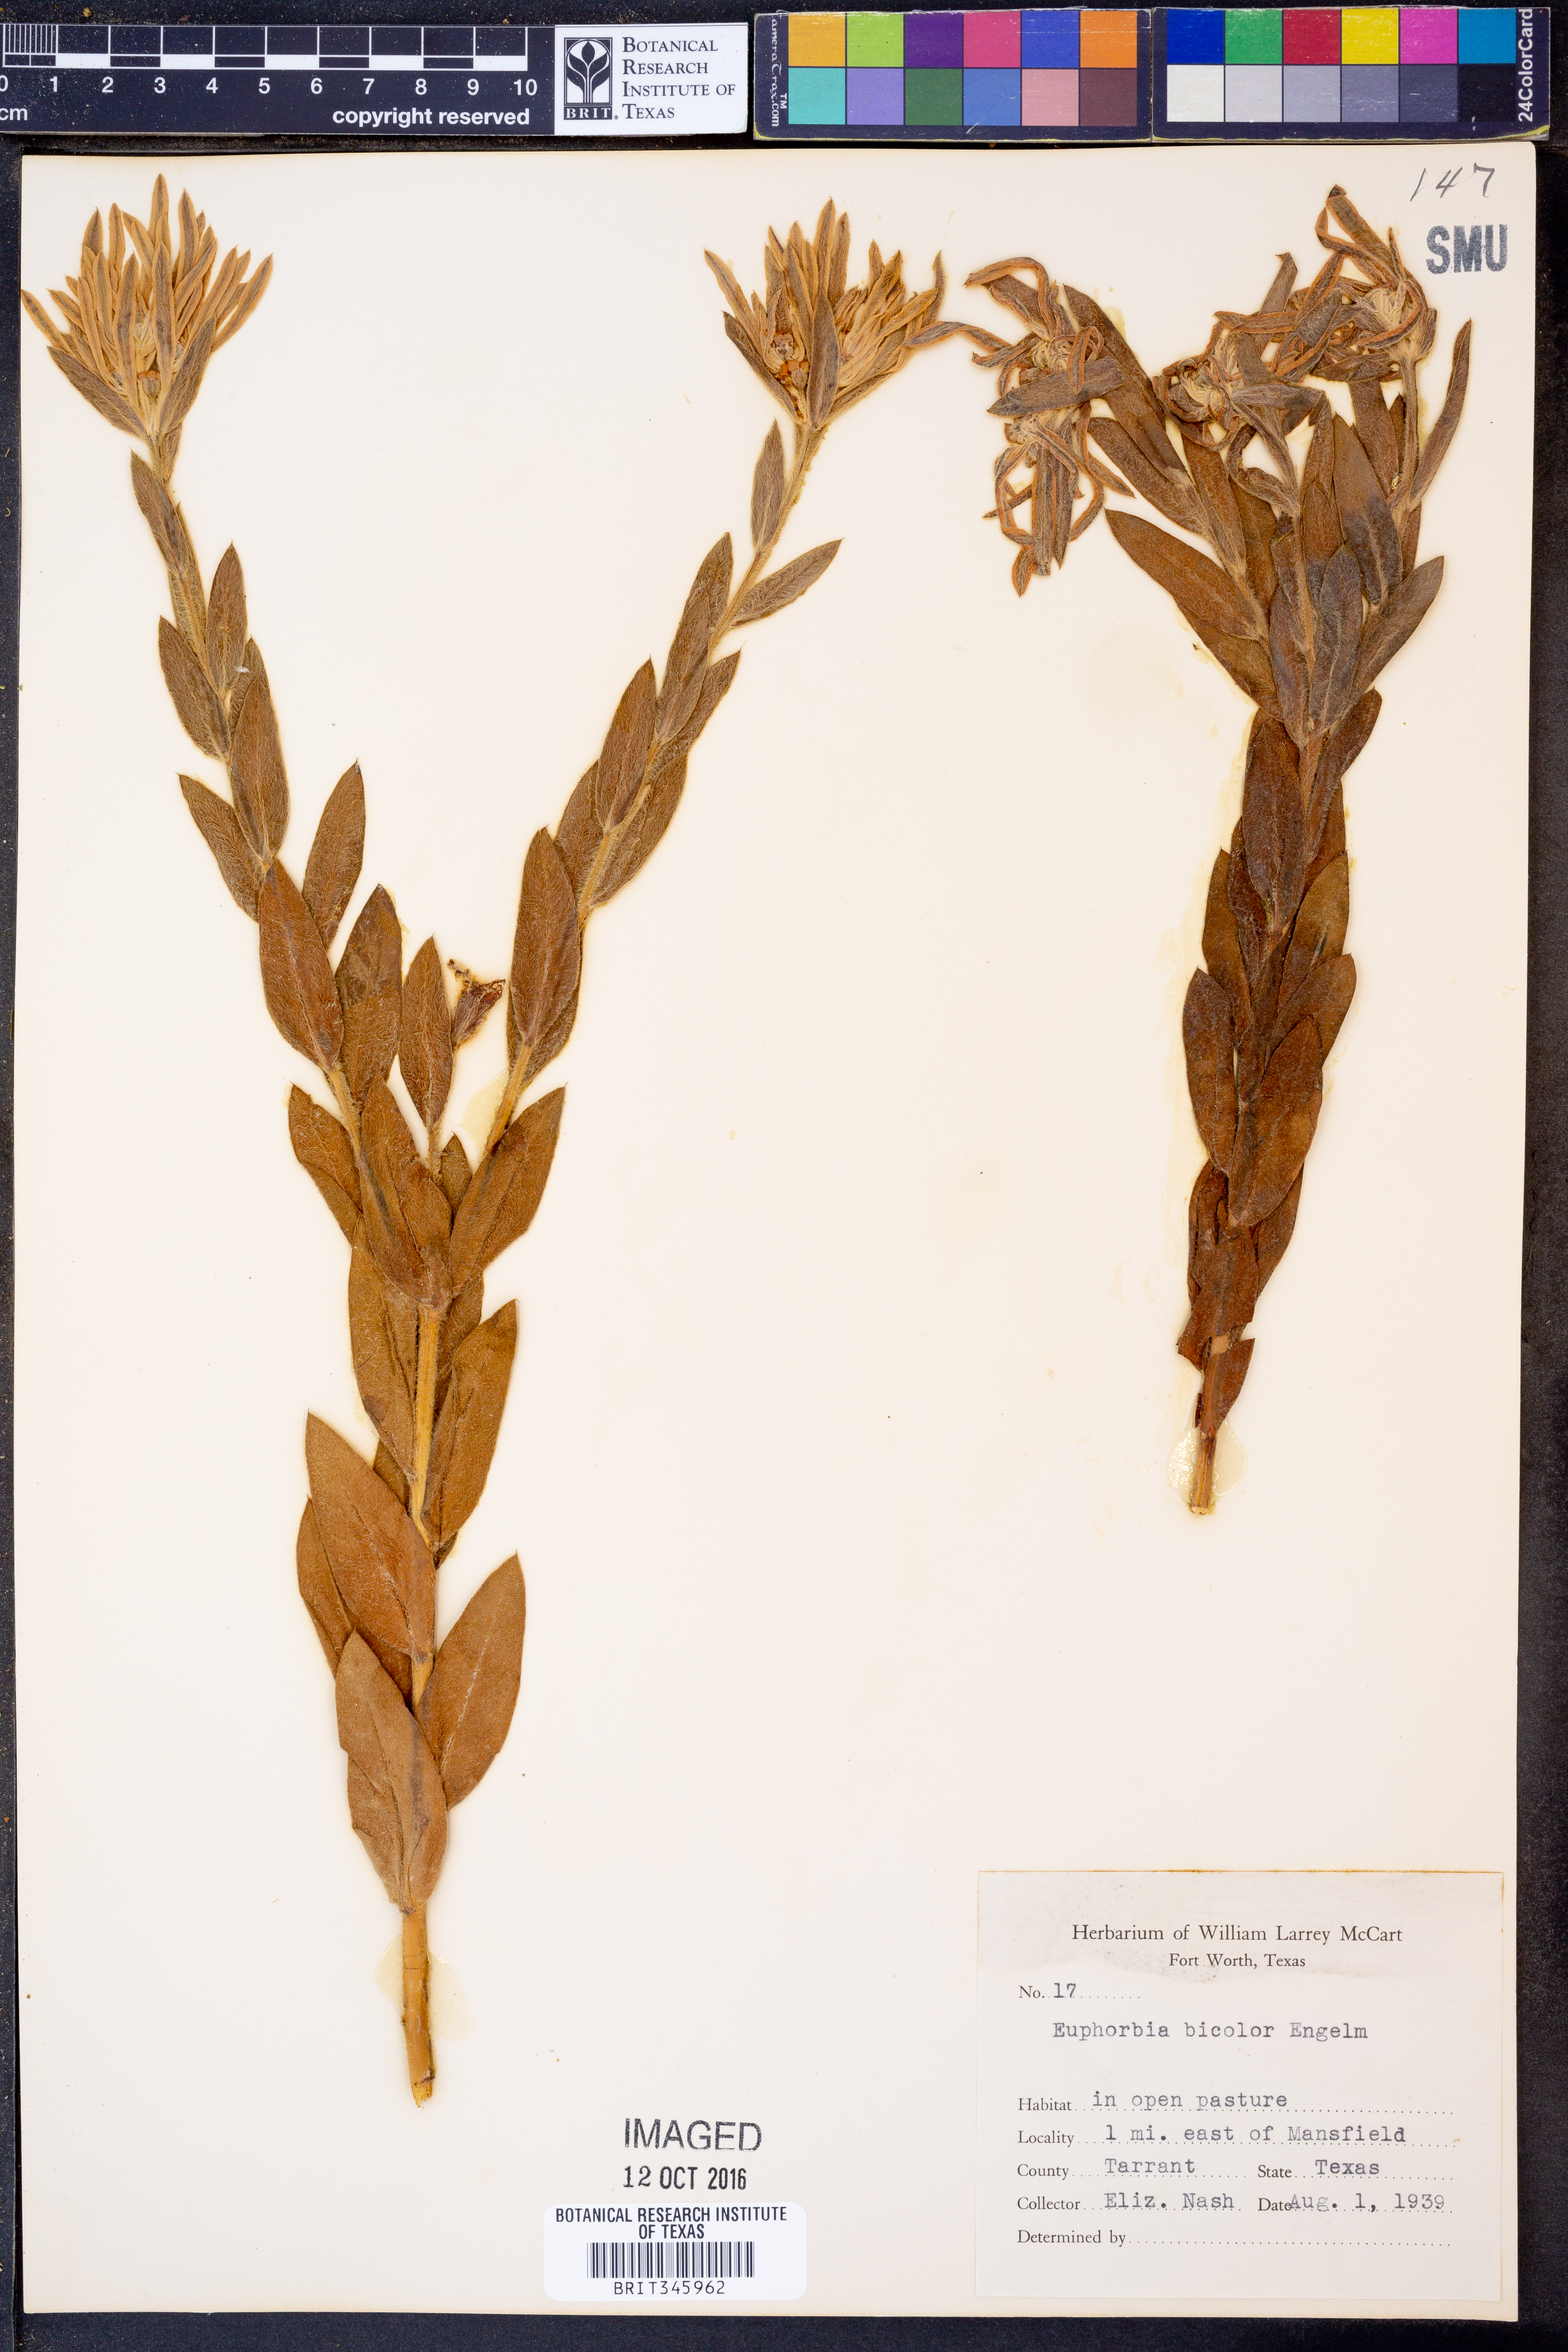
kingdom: Plantae
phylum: Tracheophyta
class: Magnoliopsida
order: Malpighiales
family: Euphorbiaceae
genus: Euphorbia
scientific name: Euphorbia bicolor
